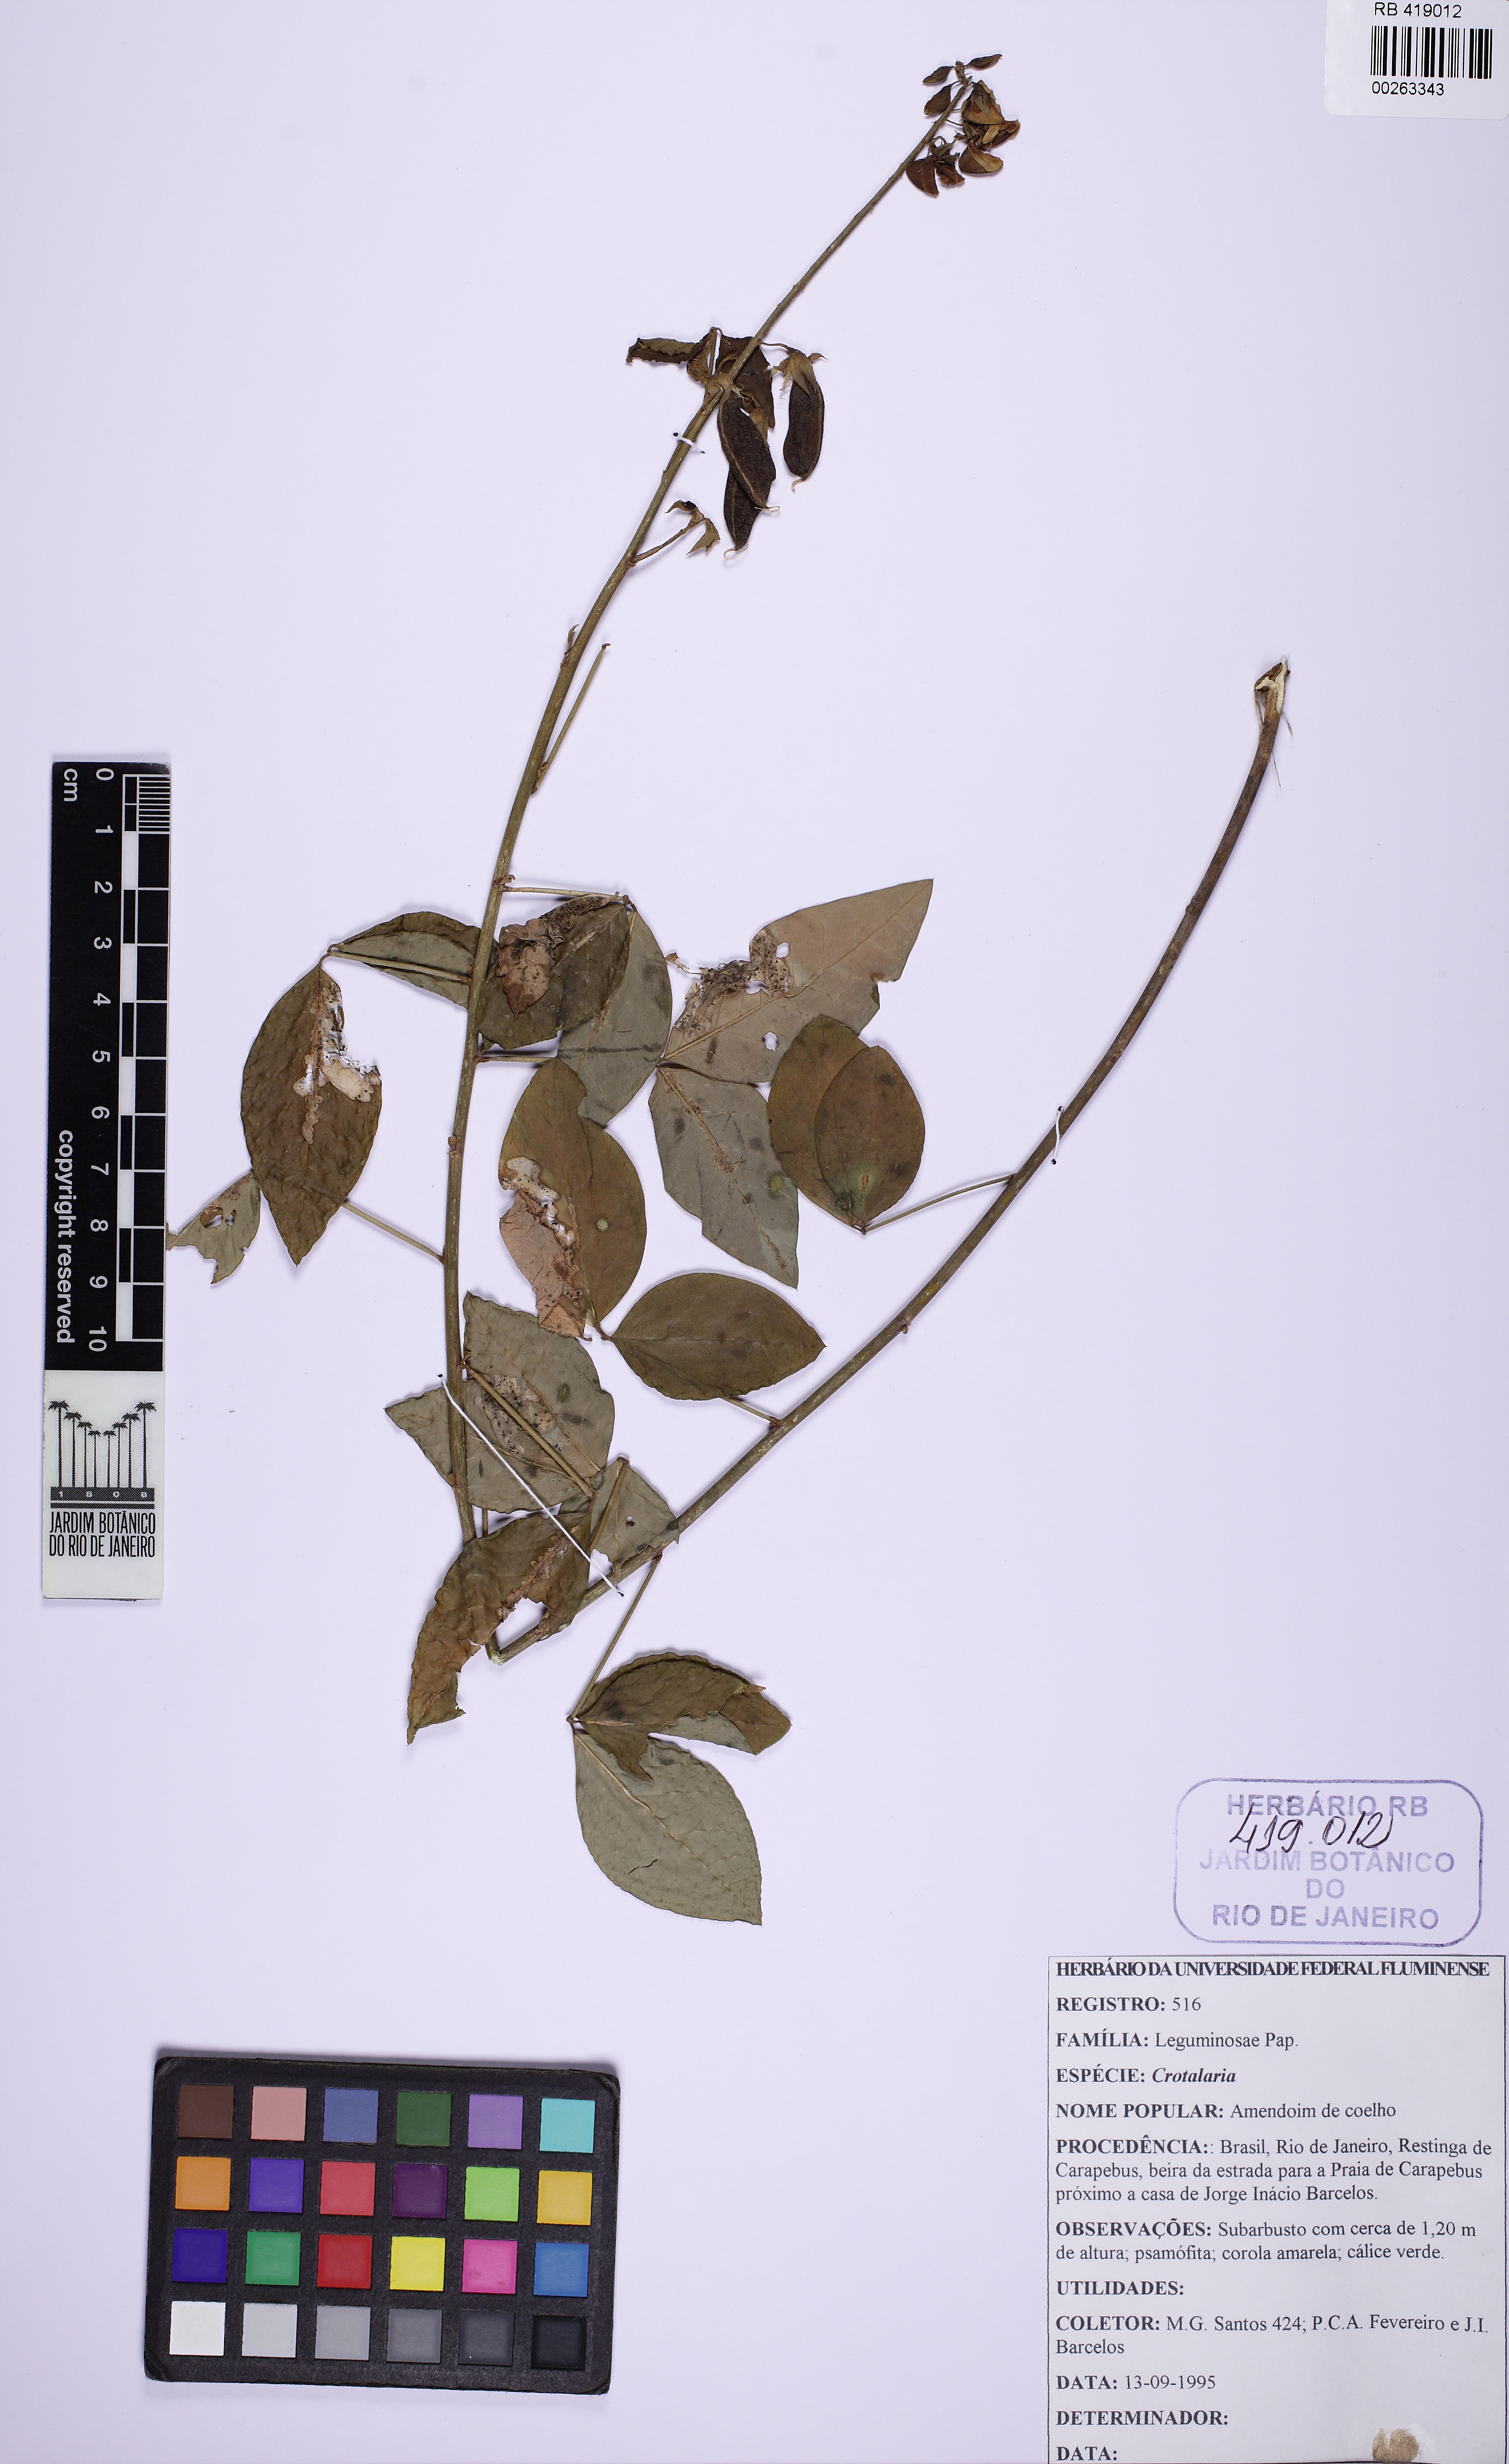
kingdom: Plantae
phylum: Tracheophyta
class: Magnoliopsida
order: Fabales
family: Fabaceae
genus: Crotalaria
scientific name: Crotalaria
